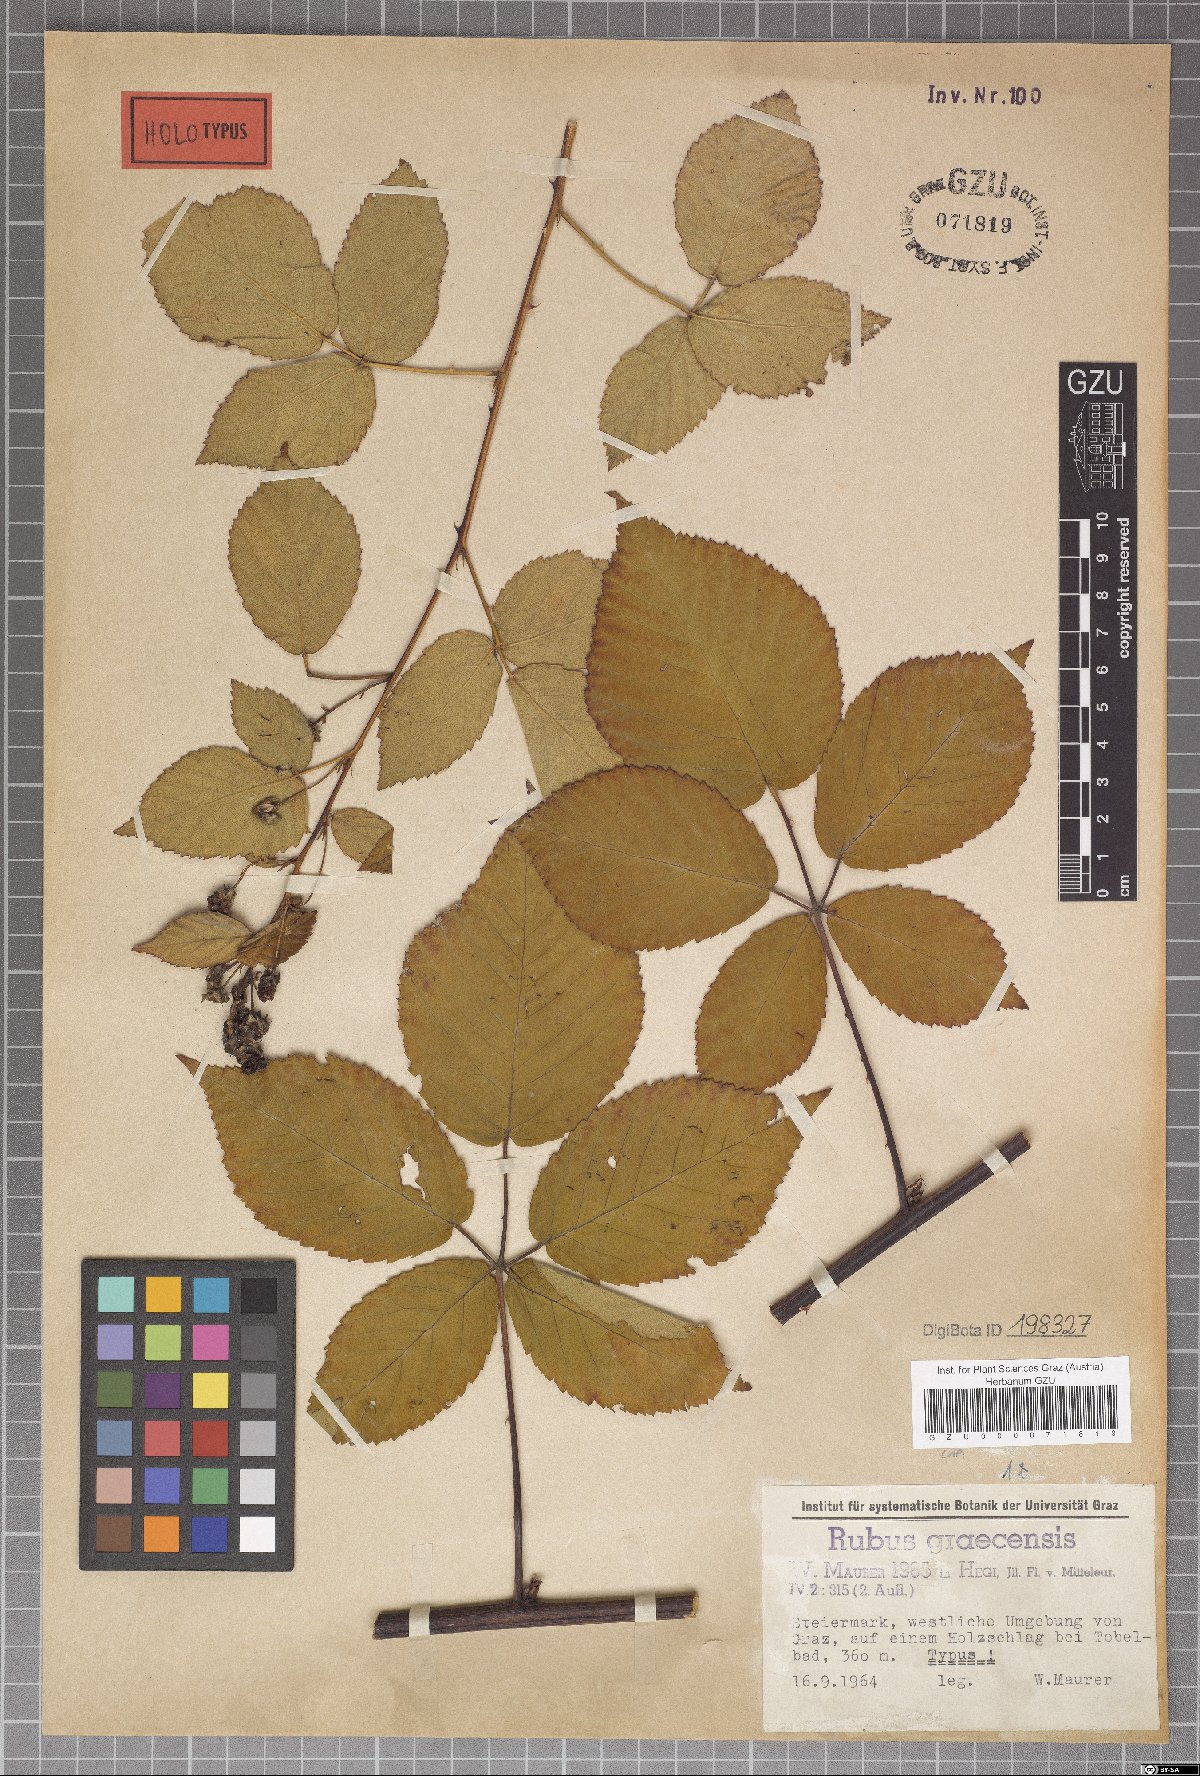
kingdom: Plantae
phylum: Tracheophyta
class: Magnoliopsida
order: Rosales
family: Rosaceae
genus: Rubus
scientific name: Rubus graecensis
